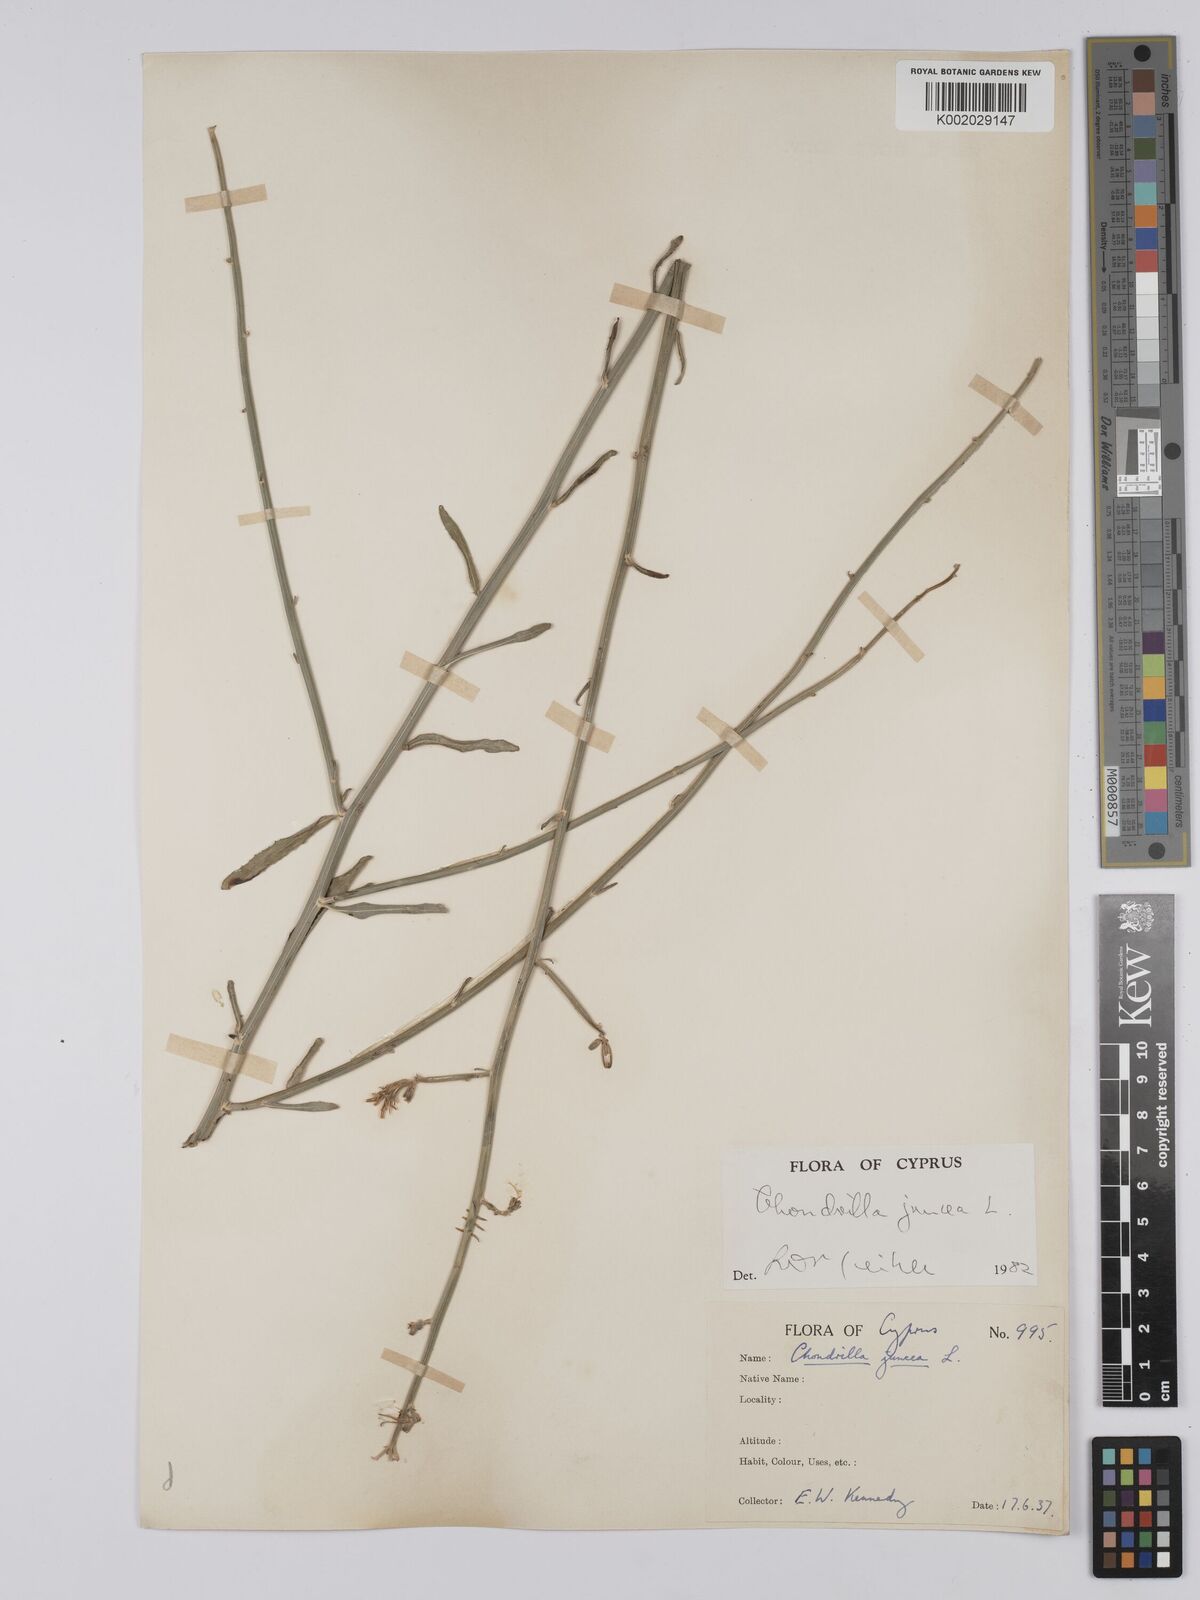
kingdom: Plantae
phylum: Tracheophyta
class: Magnoliopsida
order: Asterales
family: Asteraceae
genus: Chondrilla
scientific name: Chondrilla juncea
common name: Skeleton weed
